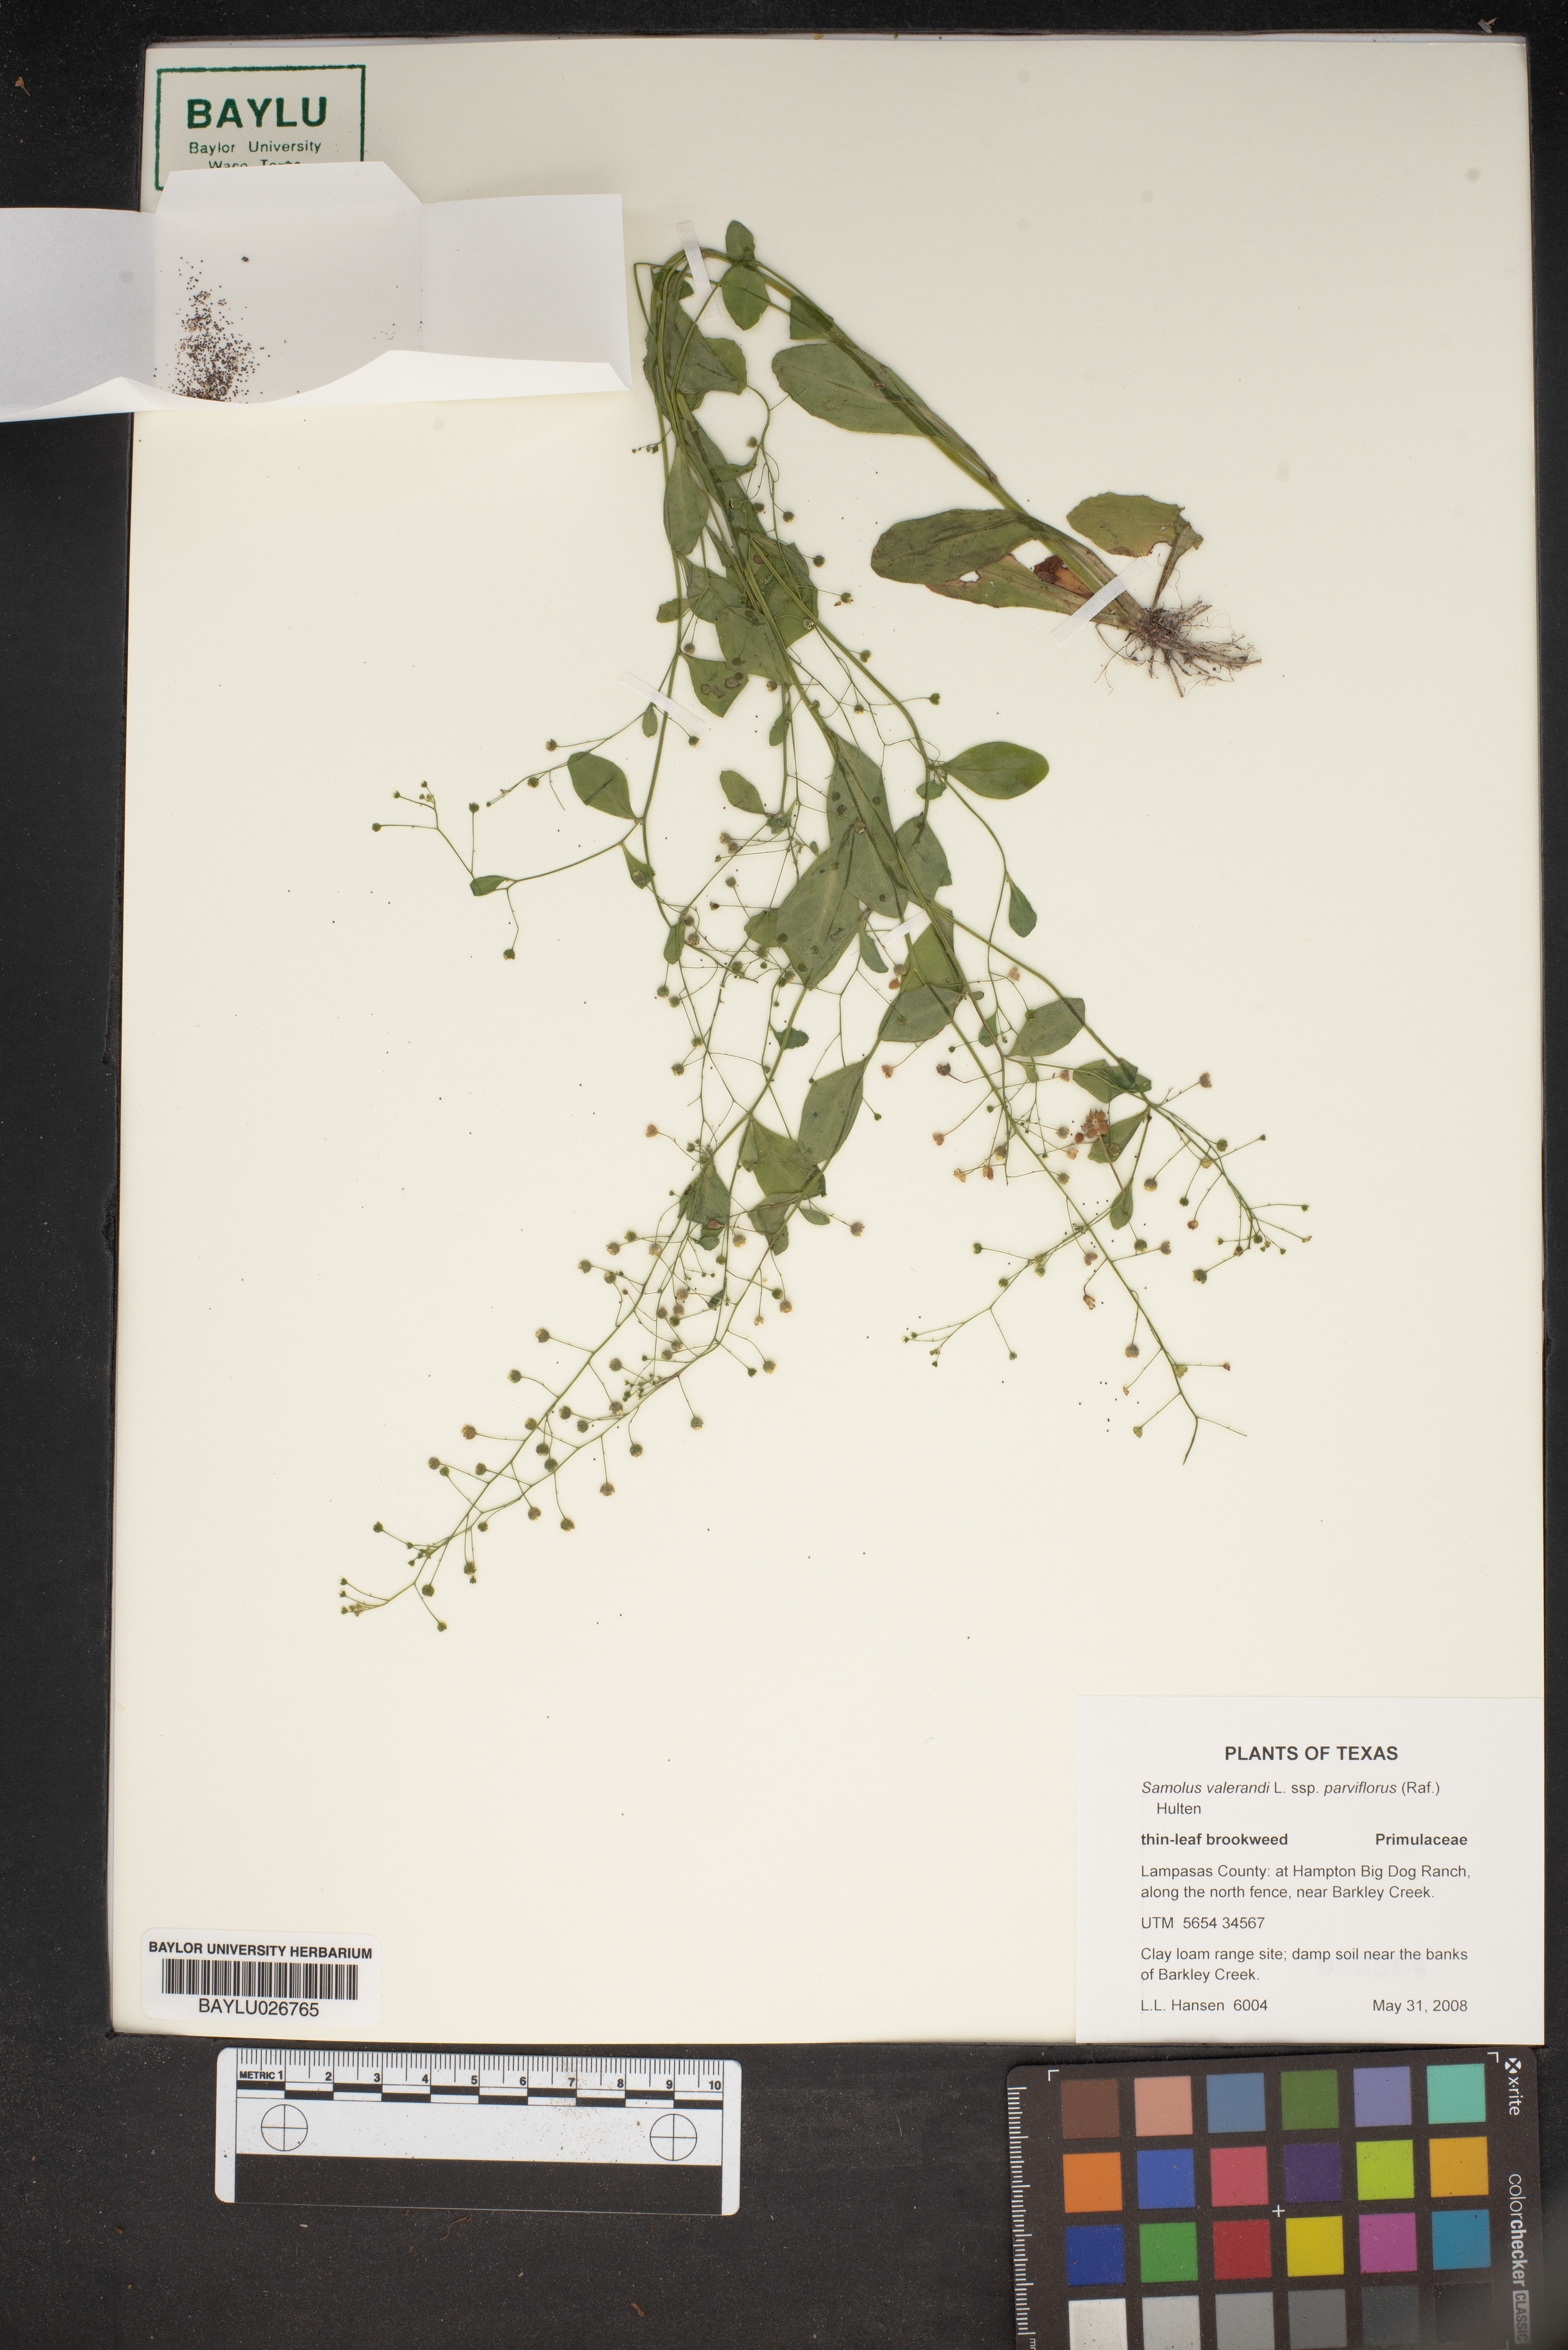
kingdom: Plantae
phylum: Tracheophyta
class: Magnoliopsida
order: Ericales
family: Primulaceae
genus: Samolus
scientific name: Samolus valerandi
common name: Brookweed
